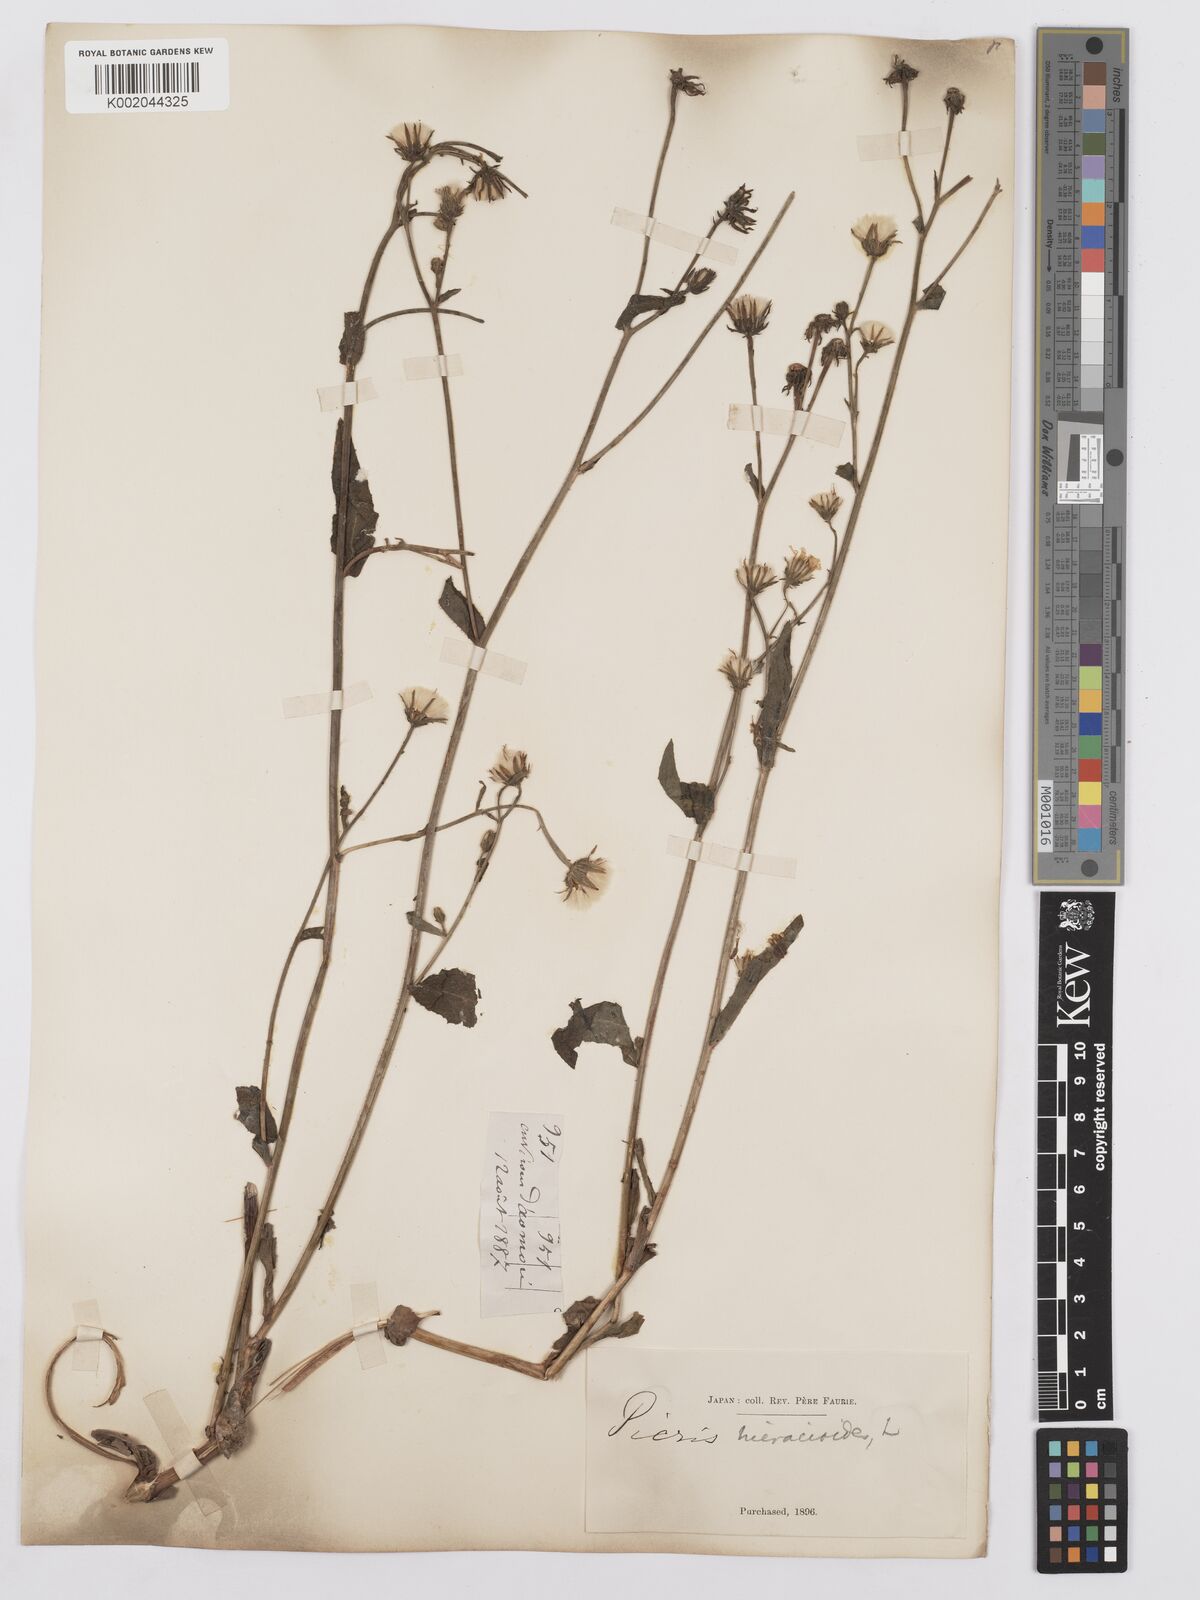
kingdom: Plantae
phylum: Tracheophyta
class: Magnoliopsida
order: Asterales
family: Asteraceae
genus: Picris
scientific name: Picris hieracioides
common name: Hawkweed oxtongue
